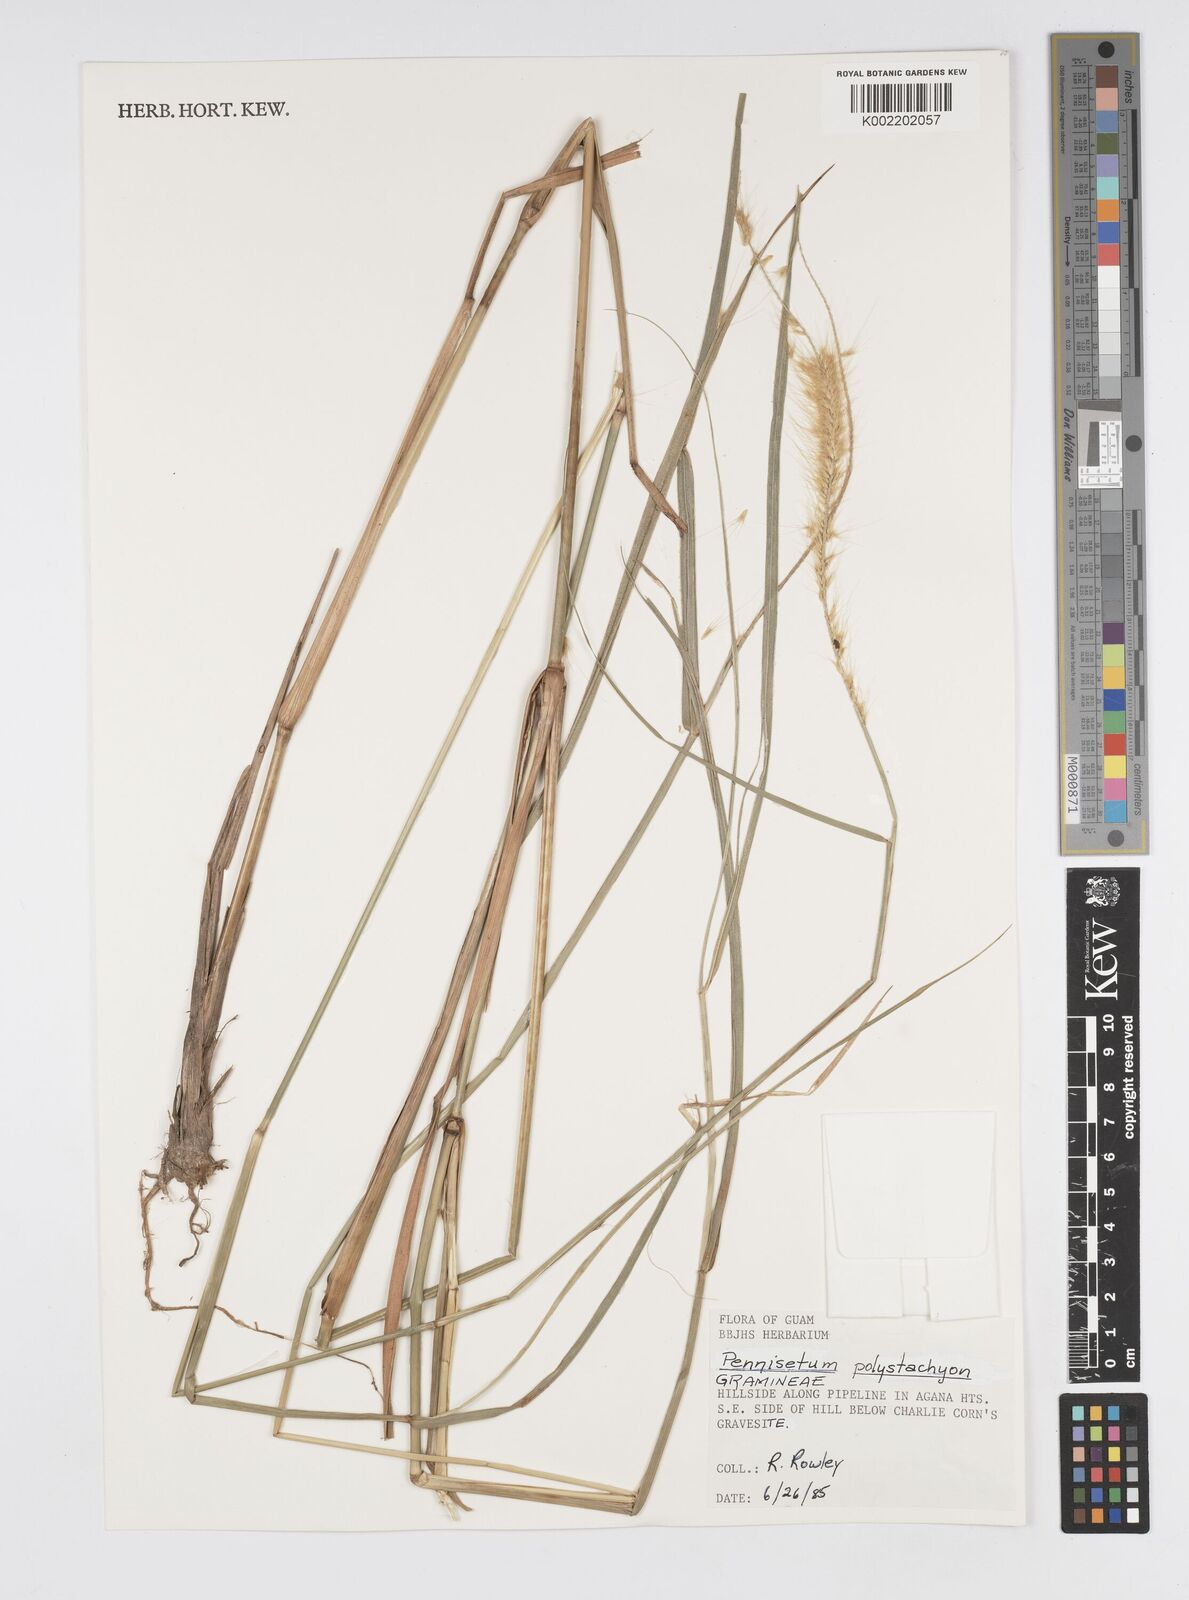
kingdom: Plantae
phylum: Tracheophyta
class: Liliopsida
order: Poales
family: Poaceae
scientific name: Poaceae
